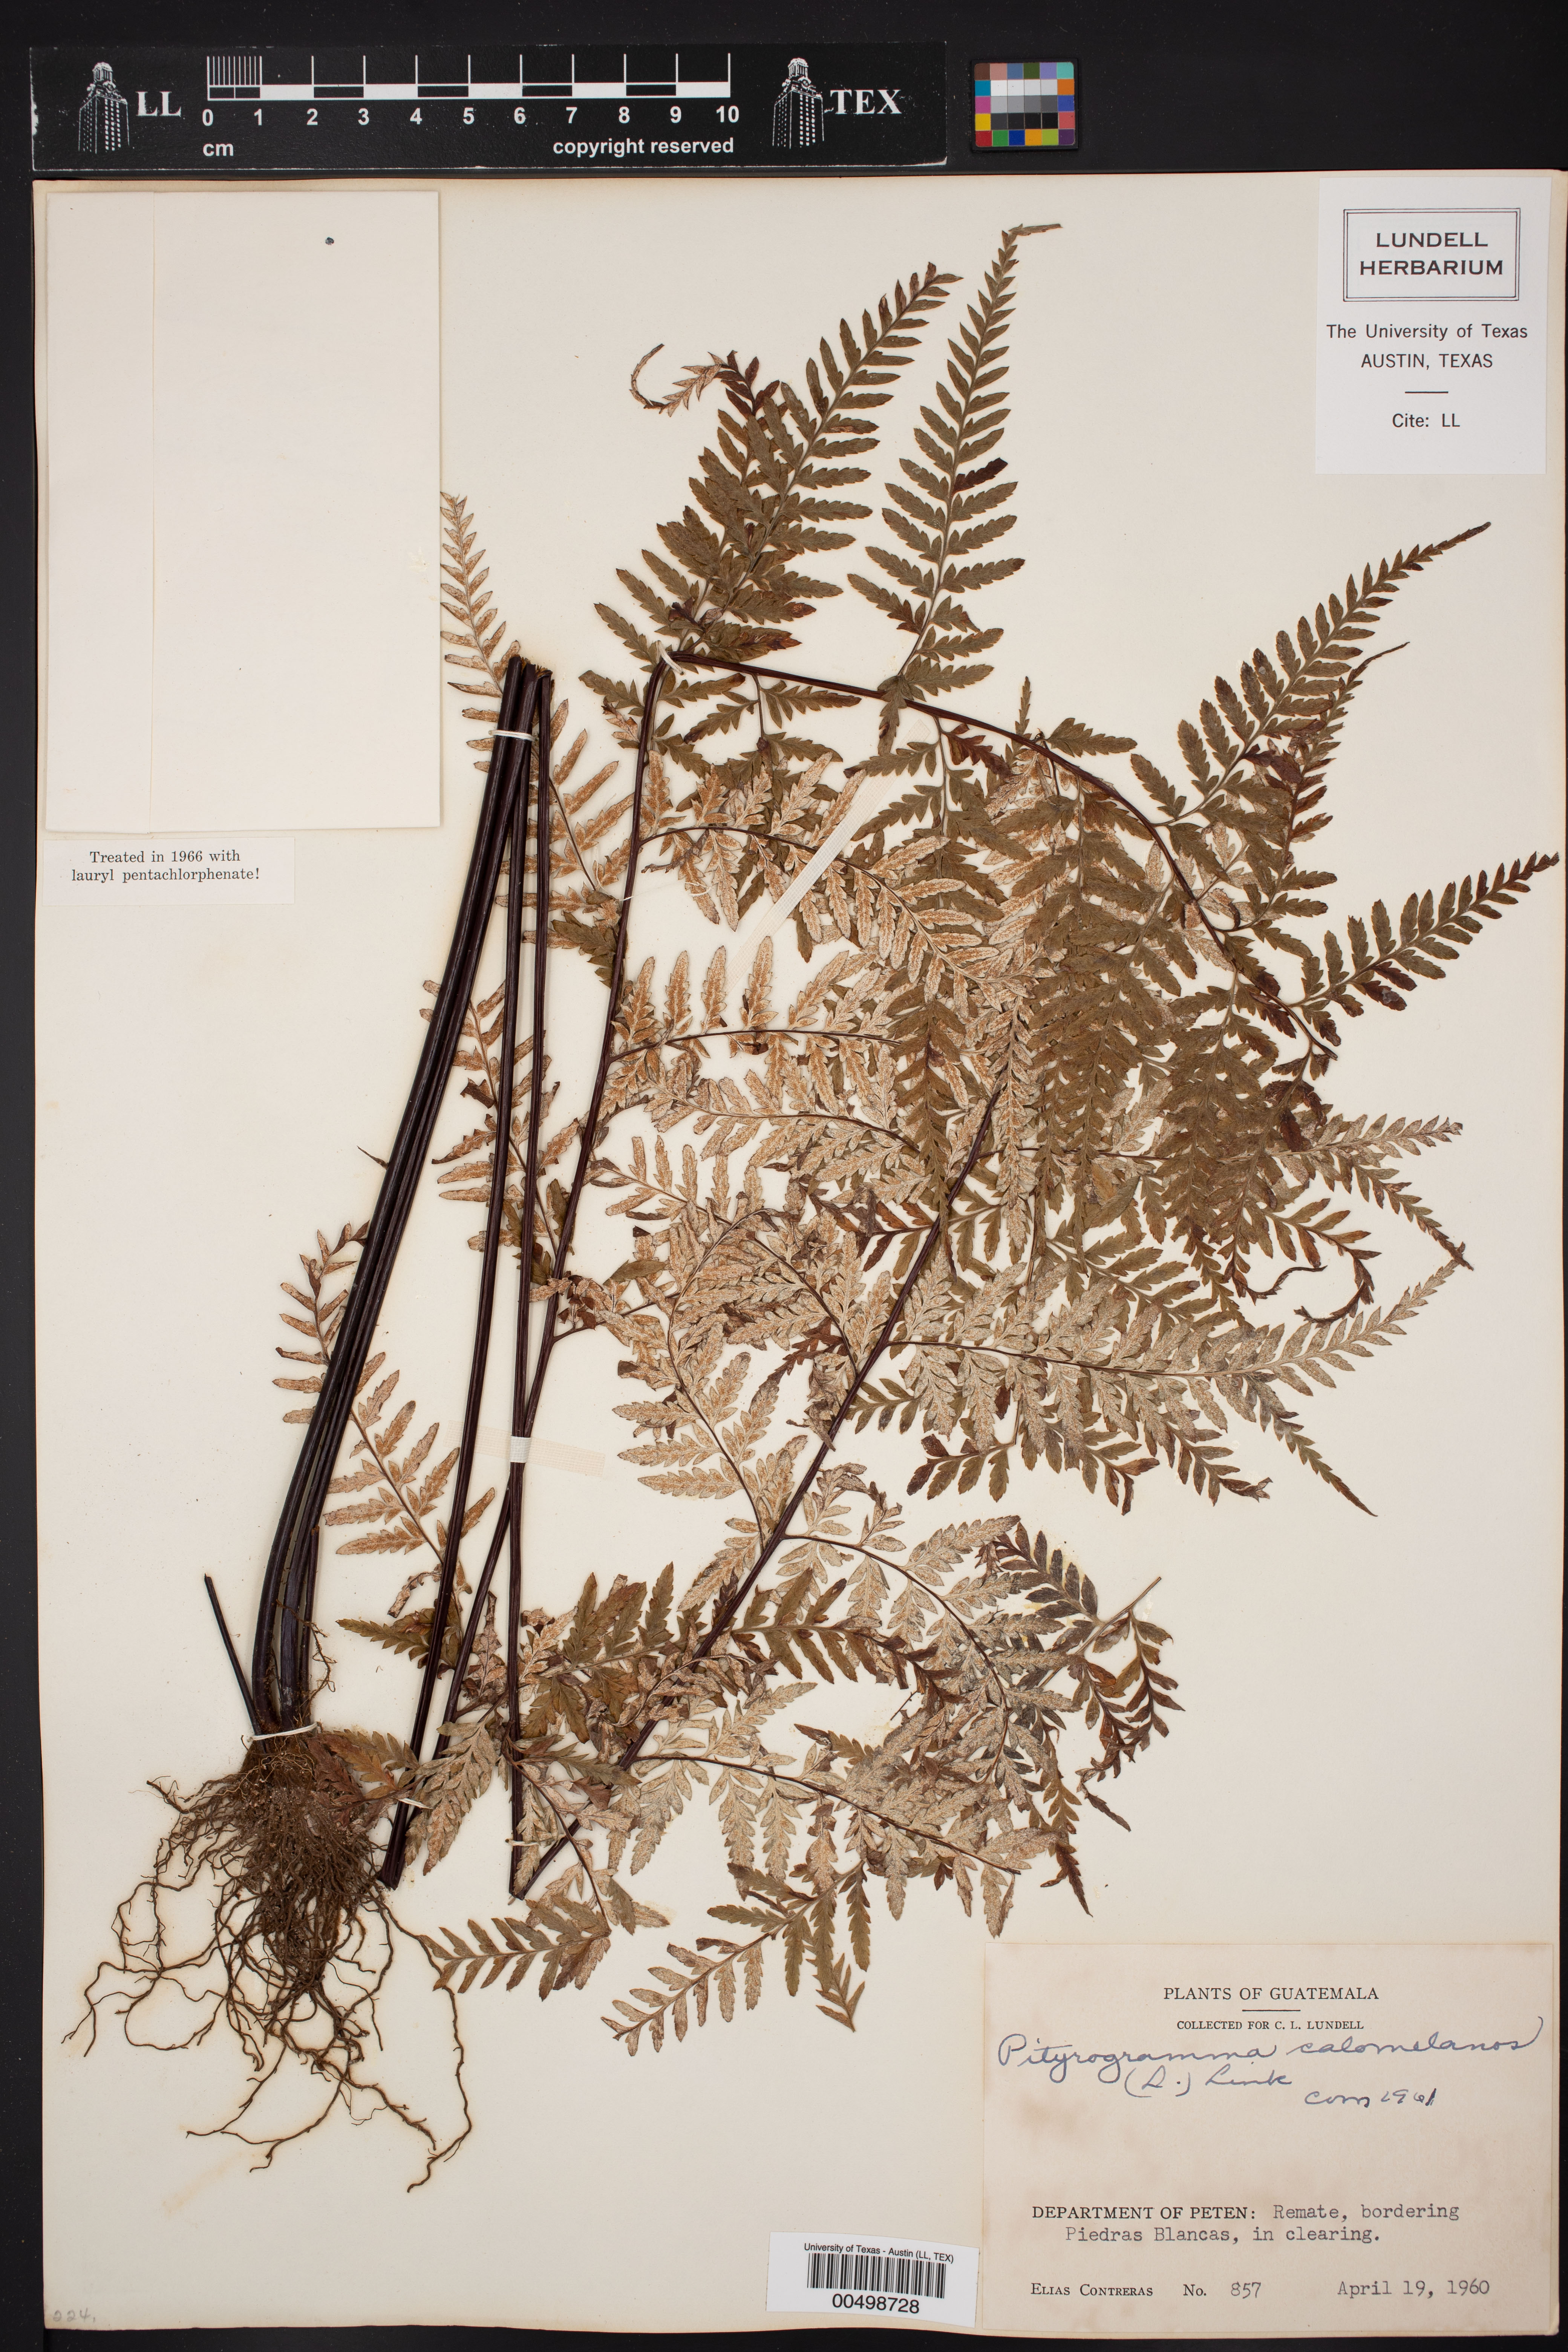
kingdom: Plantae
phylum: Tracheophyta
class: Polypodiopsida
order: Polypodiales
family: Pteridaceae
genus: Pityrogramma
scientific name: Pityrogramma calomelanos
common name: Dixie silverback fern
